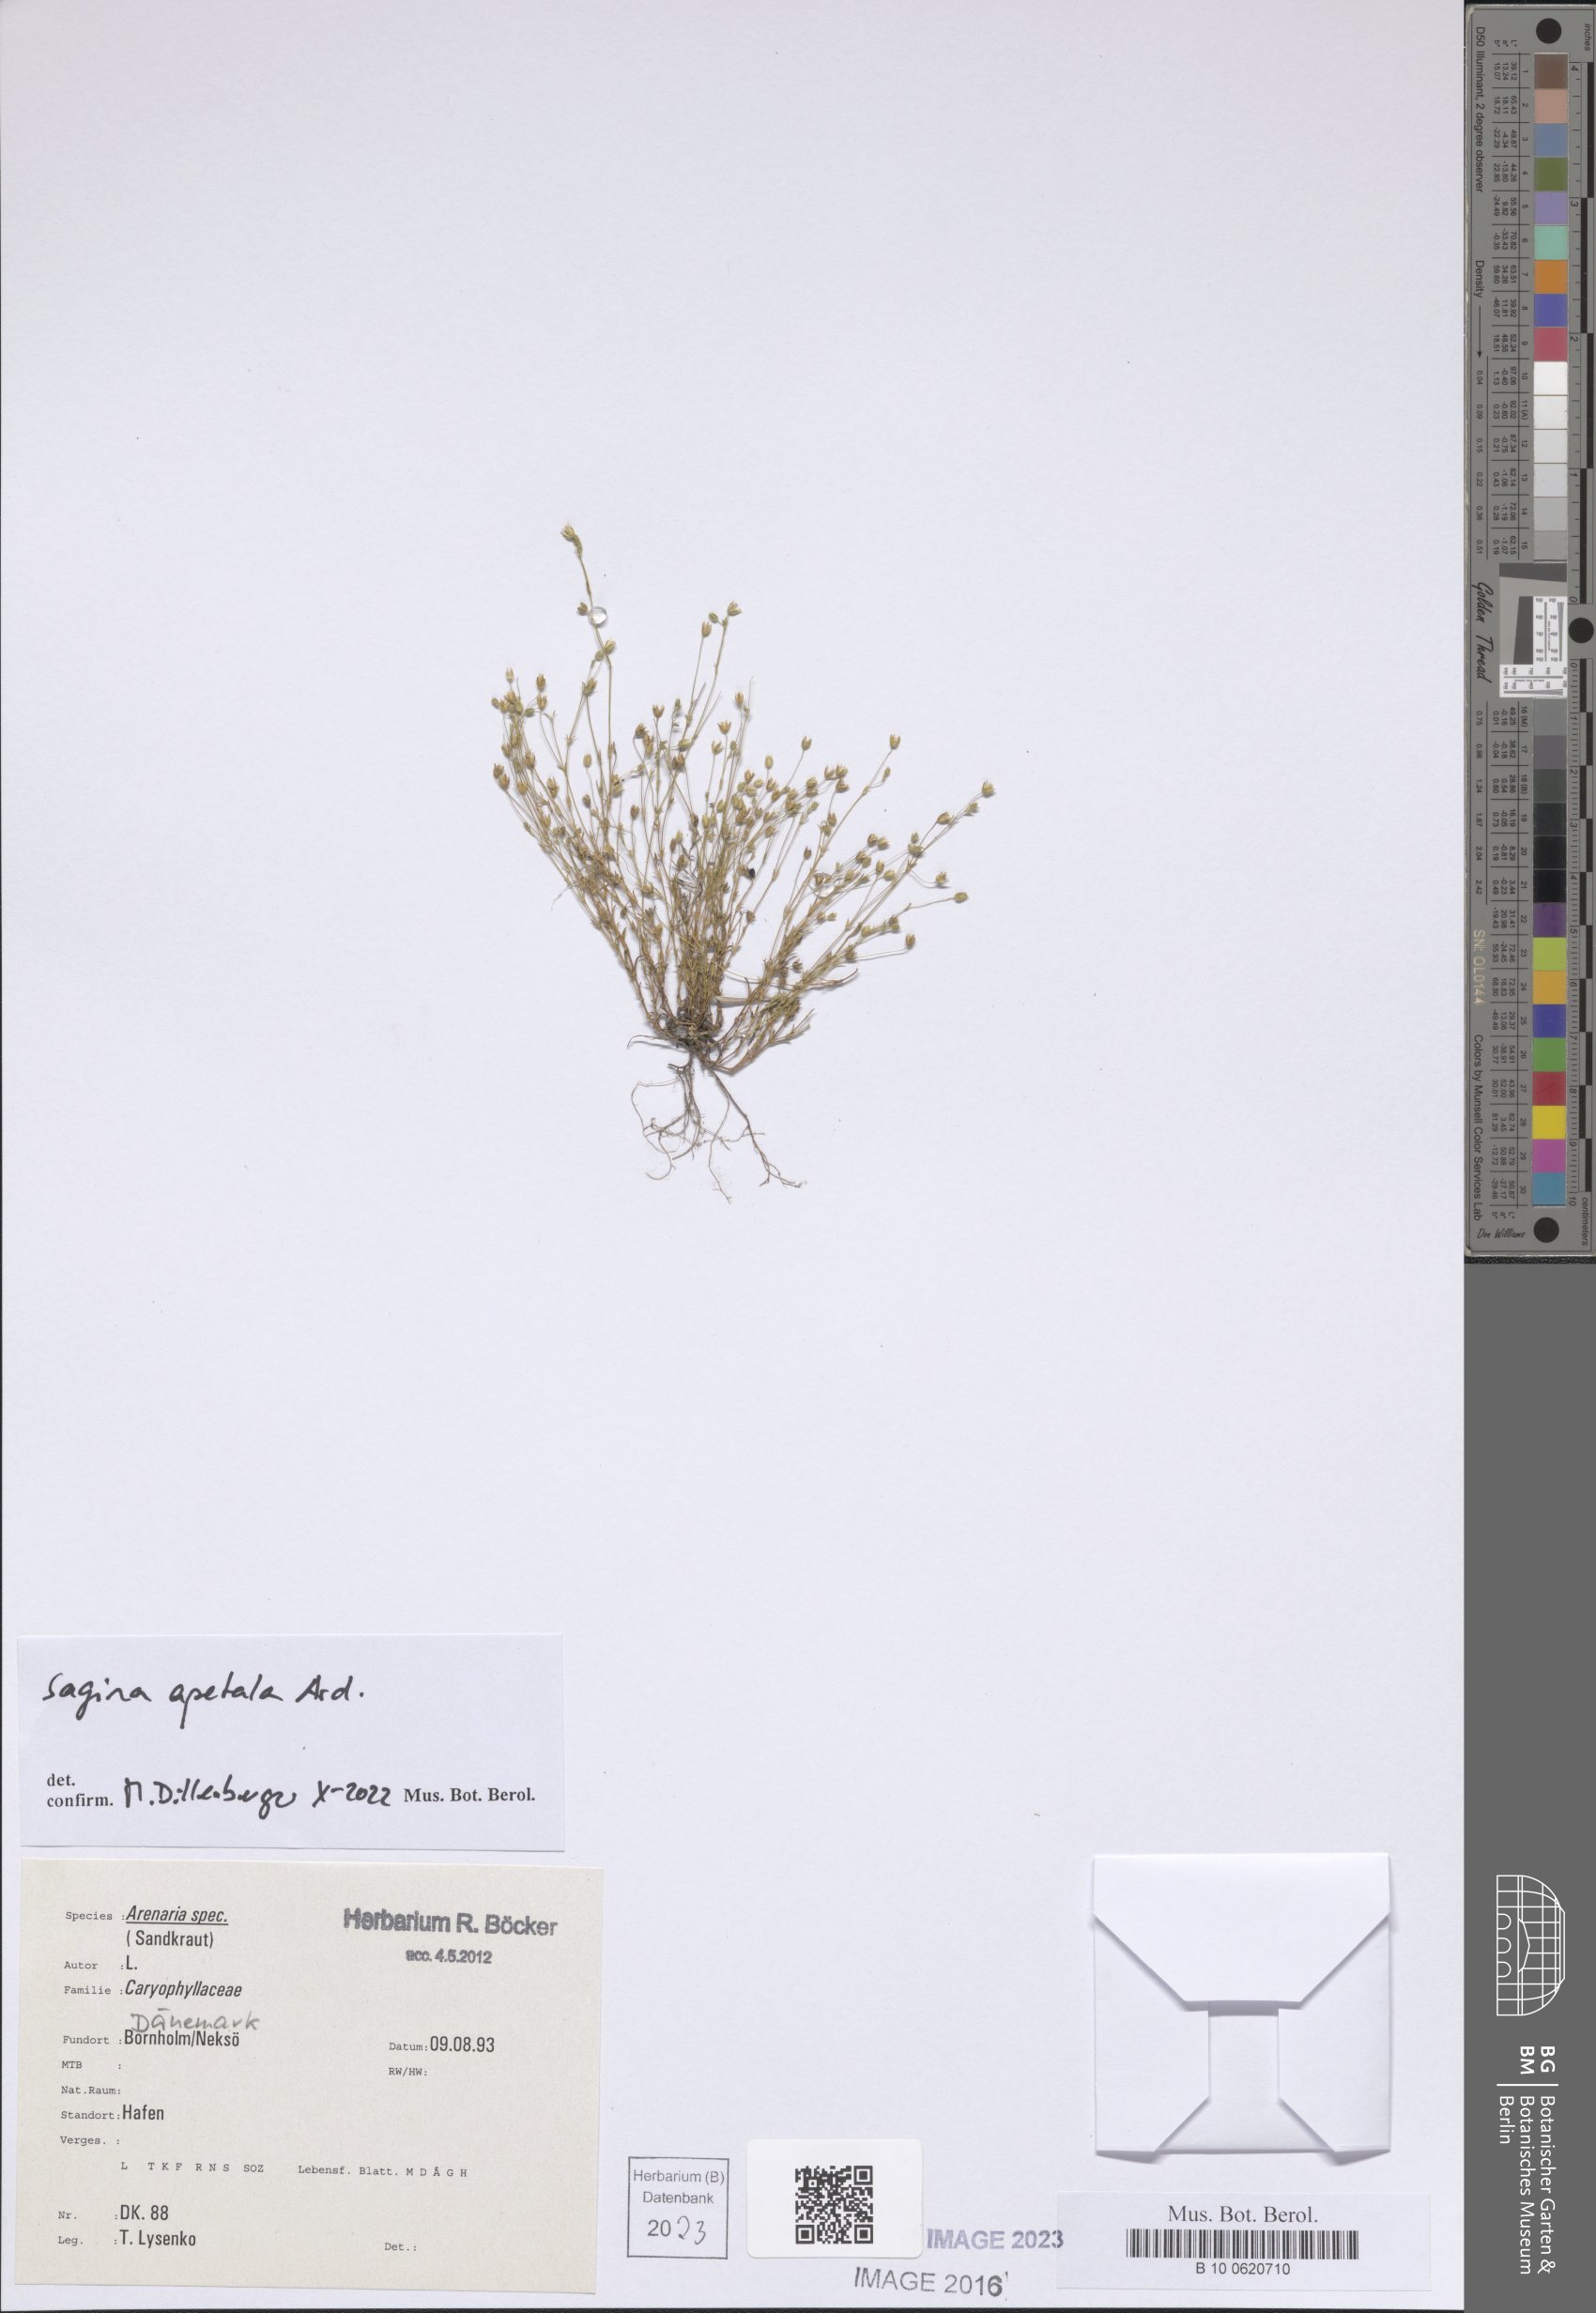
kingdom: Plantae
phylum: Tracheophyta
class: Magnoliopsida
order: Caryophyllales
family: Caryophyllaceae
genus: Sagina
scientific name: Sagina apetala
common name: Annual pearlwort
